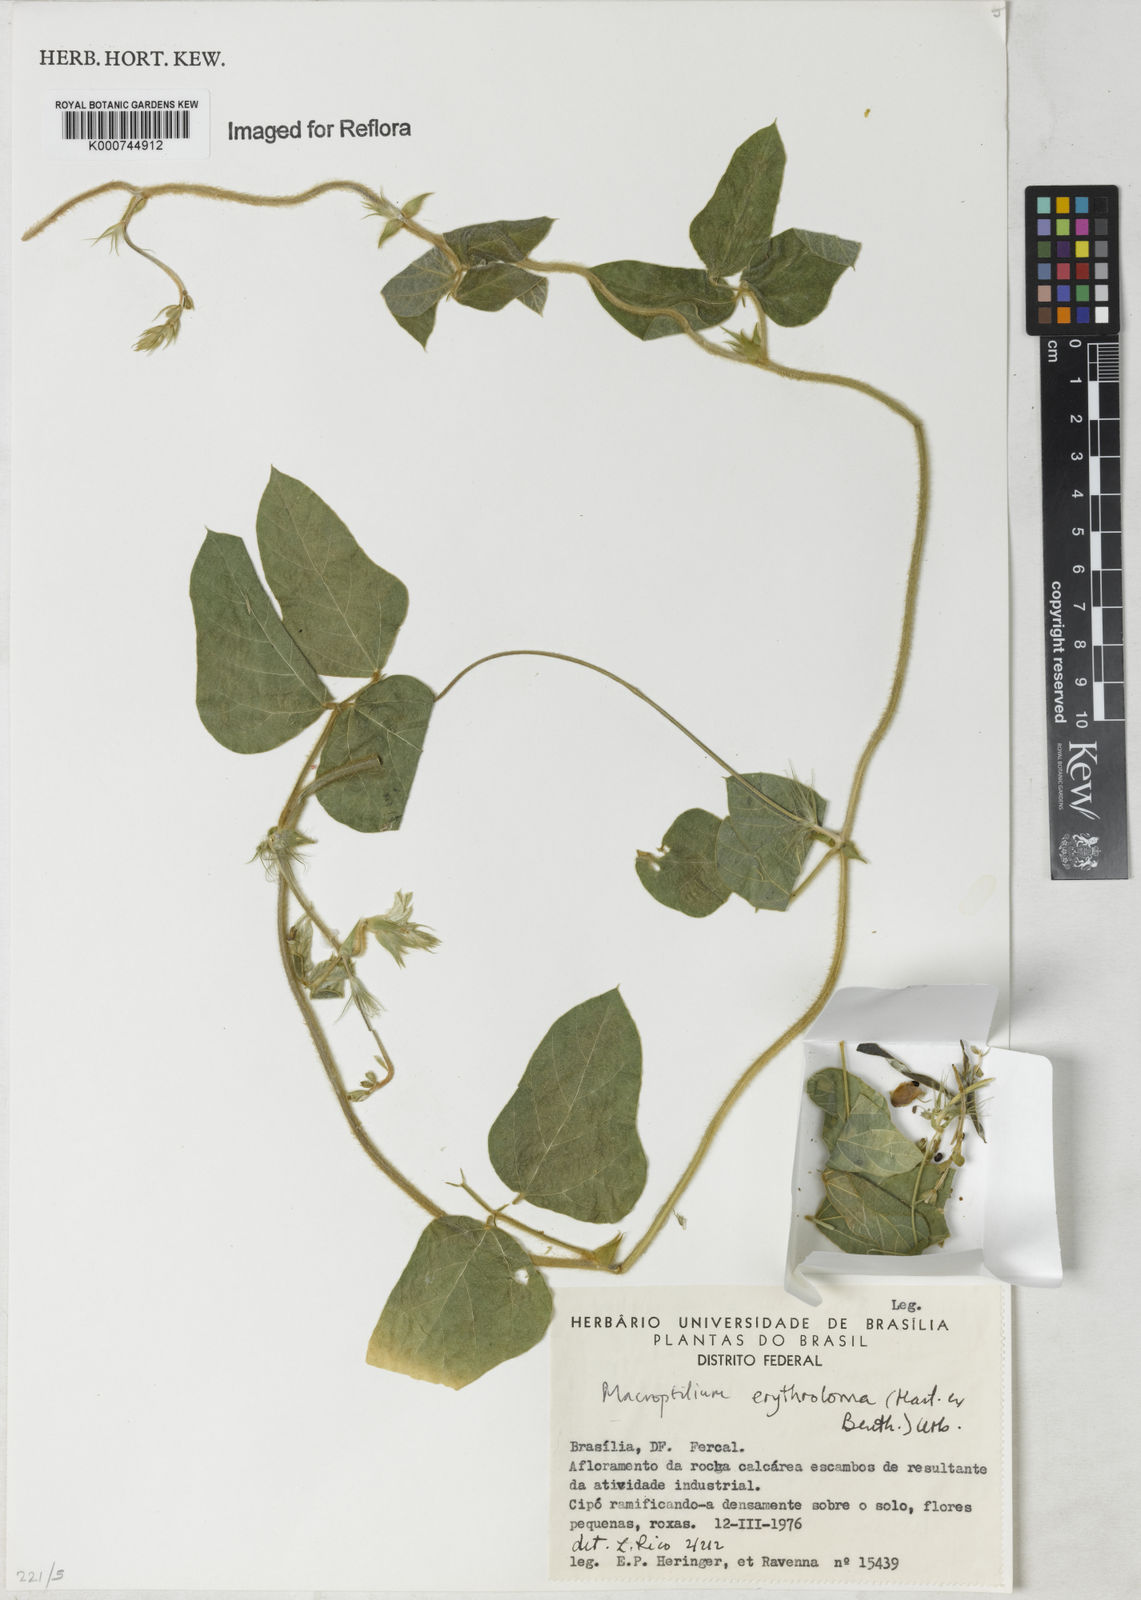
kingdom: Plantae
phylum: Tracheophyta
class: Magnoliopsida
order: Fabales
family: Fabaceae
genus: Macroptilium
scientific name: Macroptilium erythroloma
